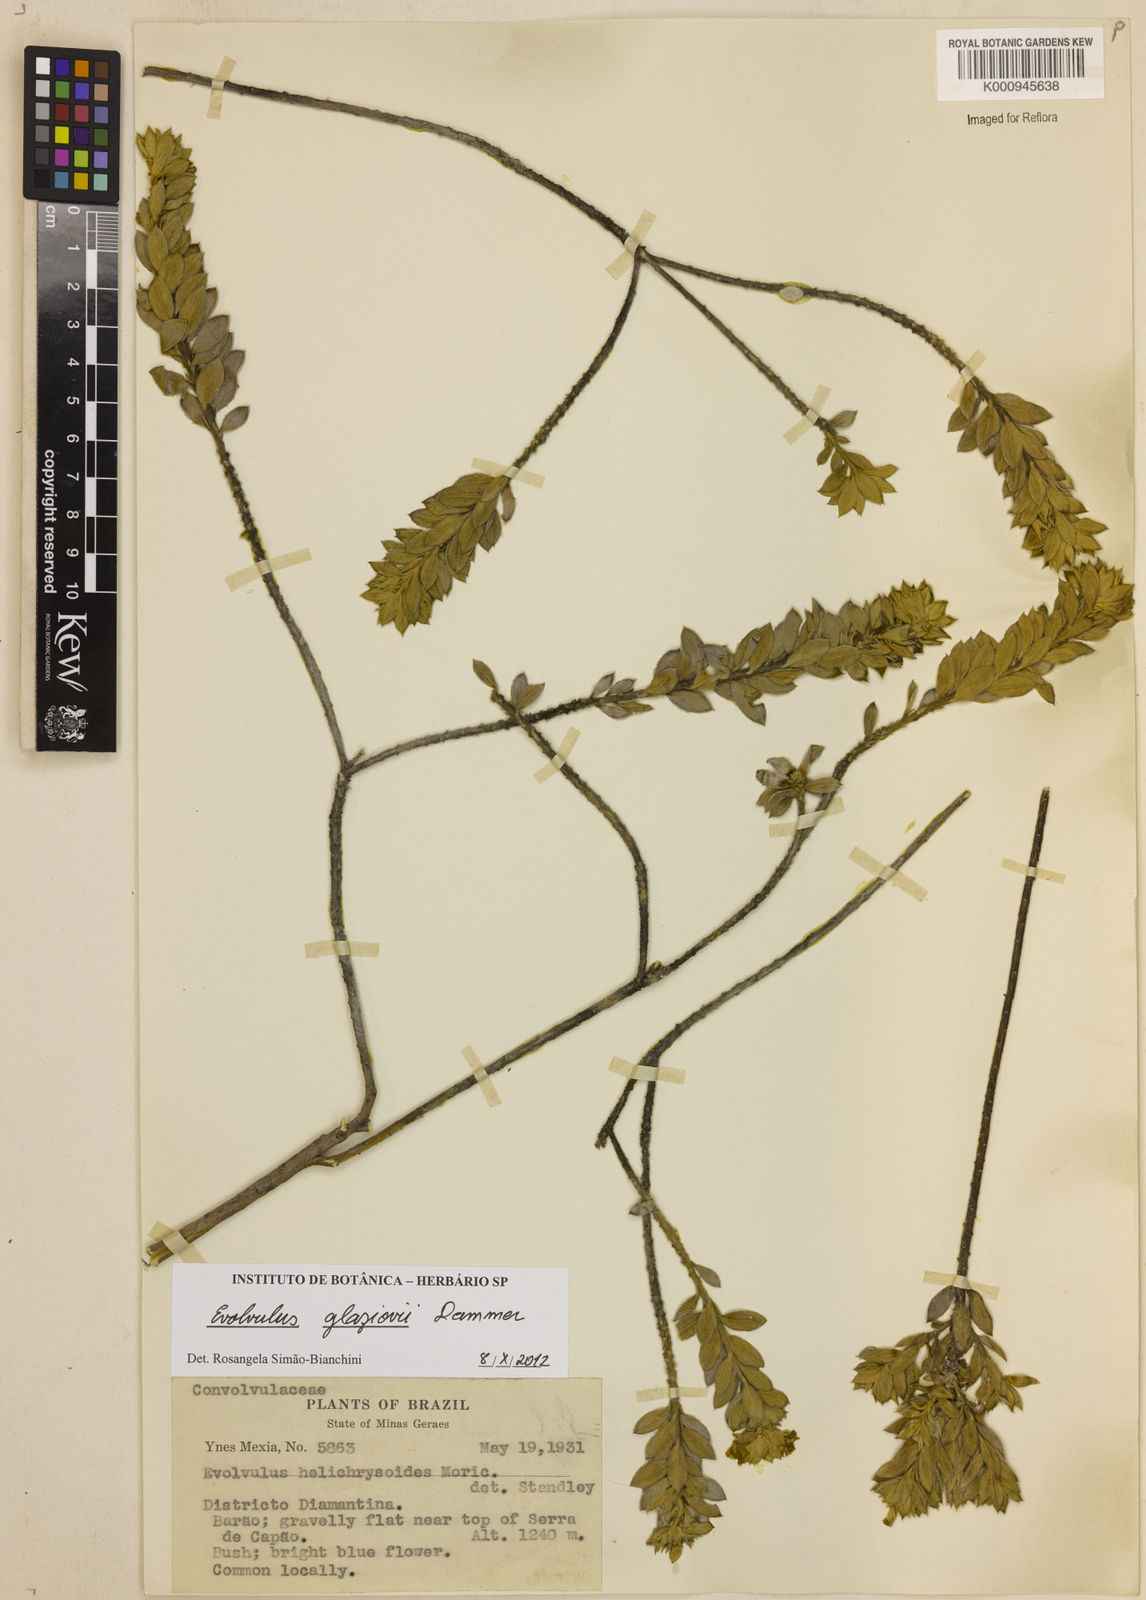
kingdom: Plantae
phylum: Tracheophyta
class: Magnoliopsida
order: Solanales
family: Convolvulaceae
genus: Evolvulus
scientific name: Evolvulus glaziovii
